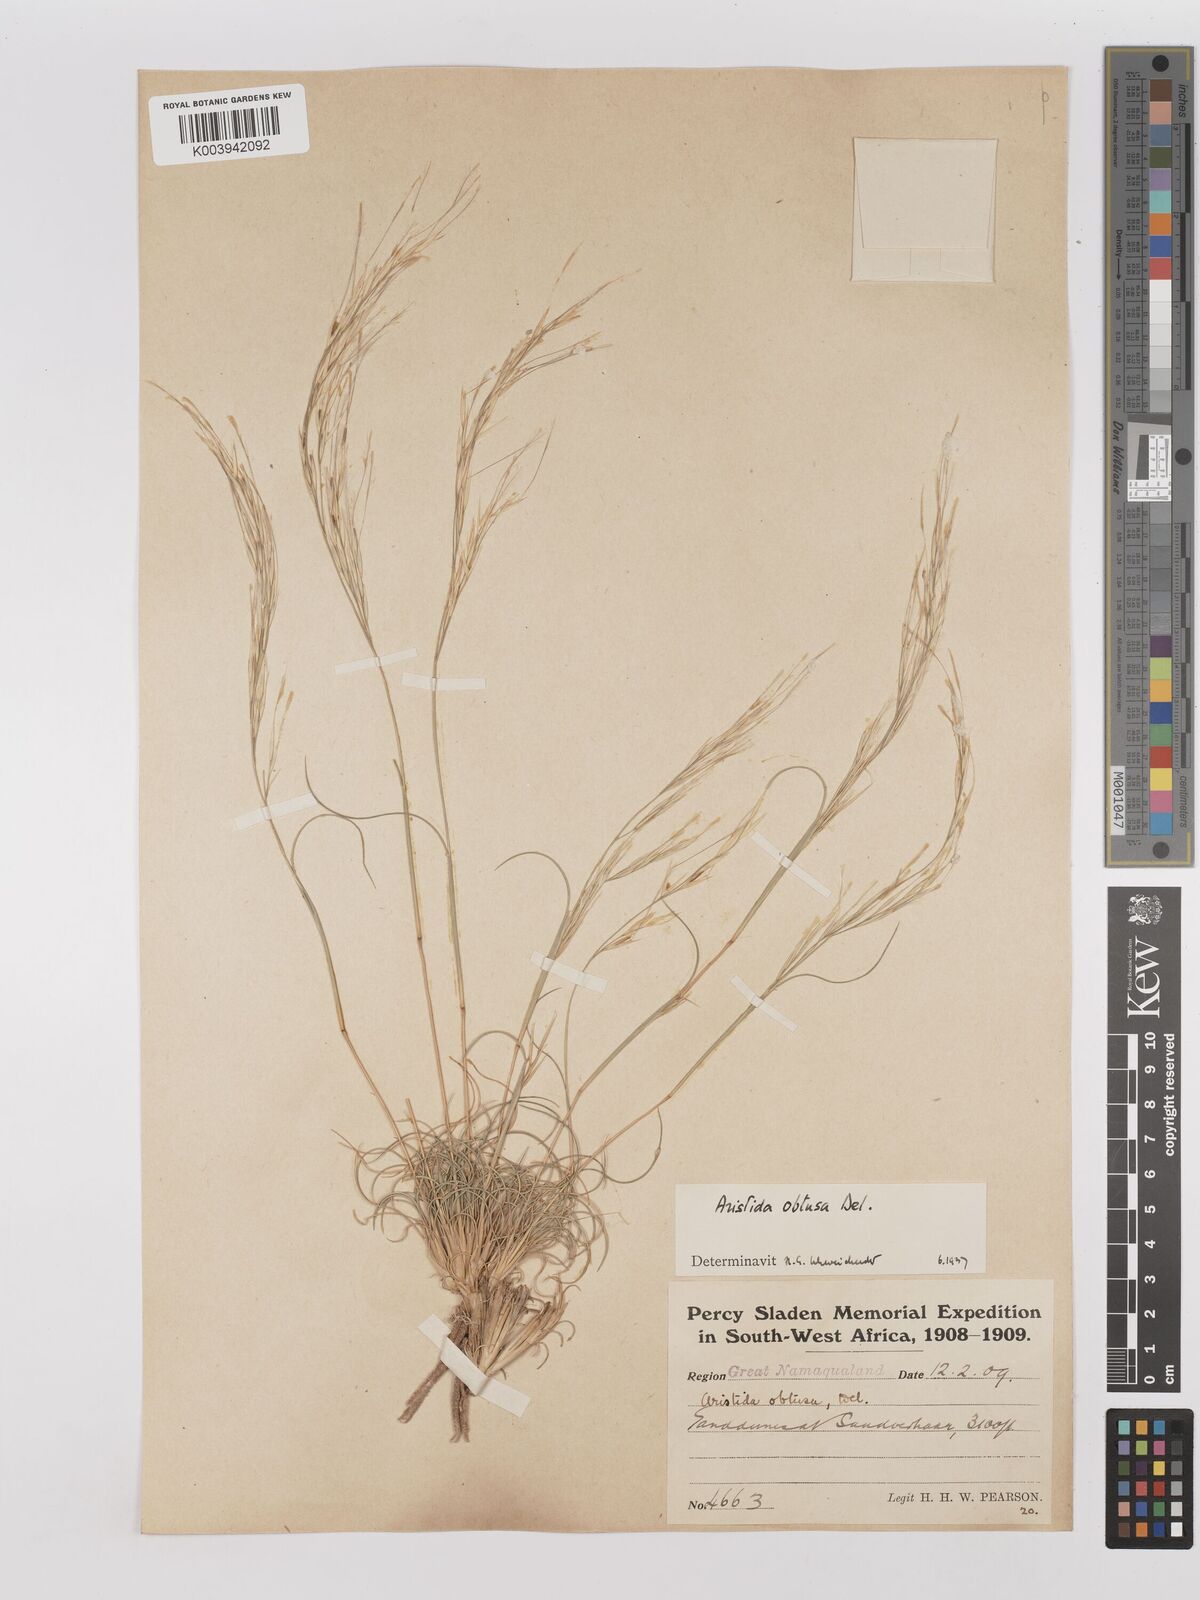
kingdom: Plantae
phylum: Tracheophyta
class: Liliopsida
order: Poales
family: Poaceae
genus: Stipagrostis
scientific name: Stipagrostis obtusa
